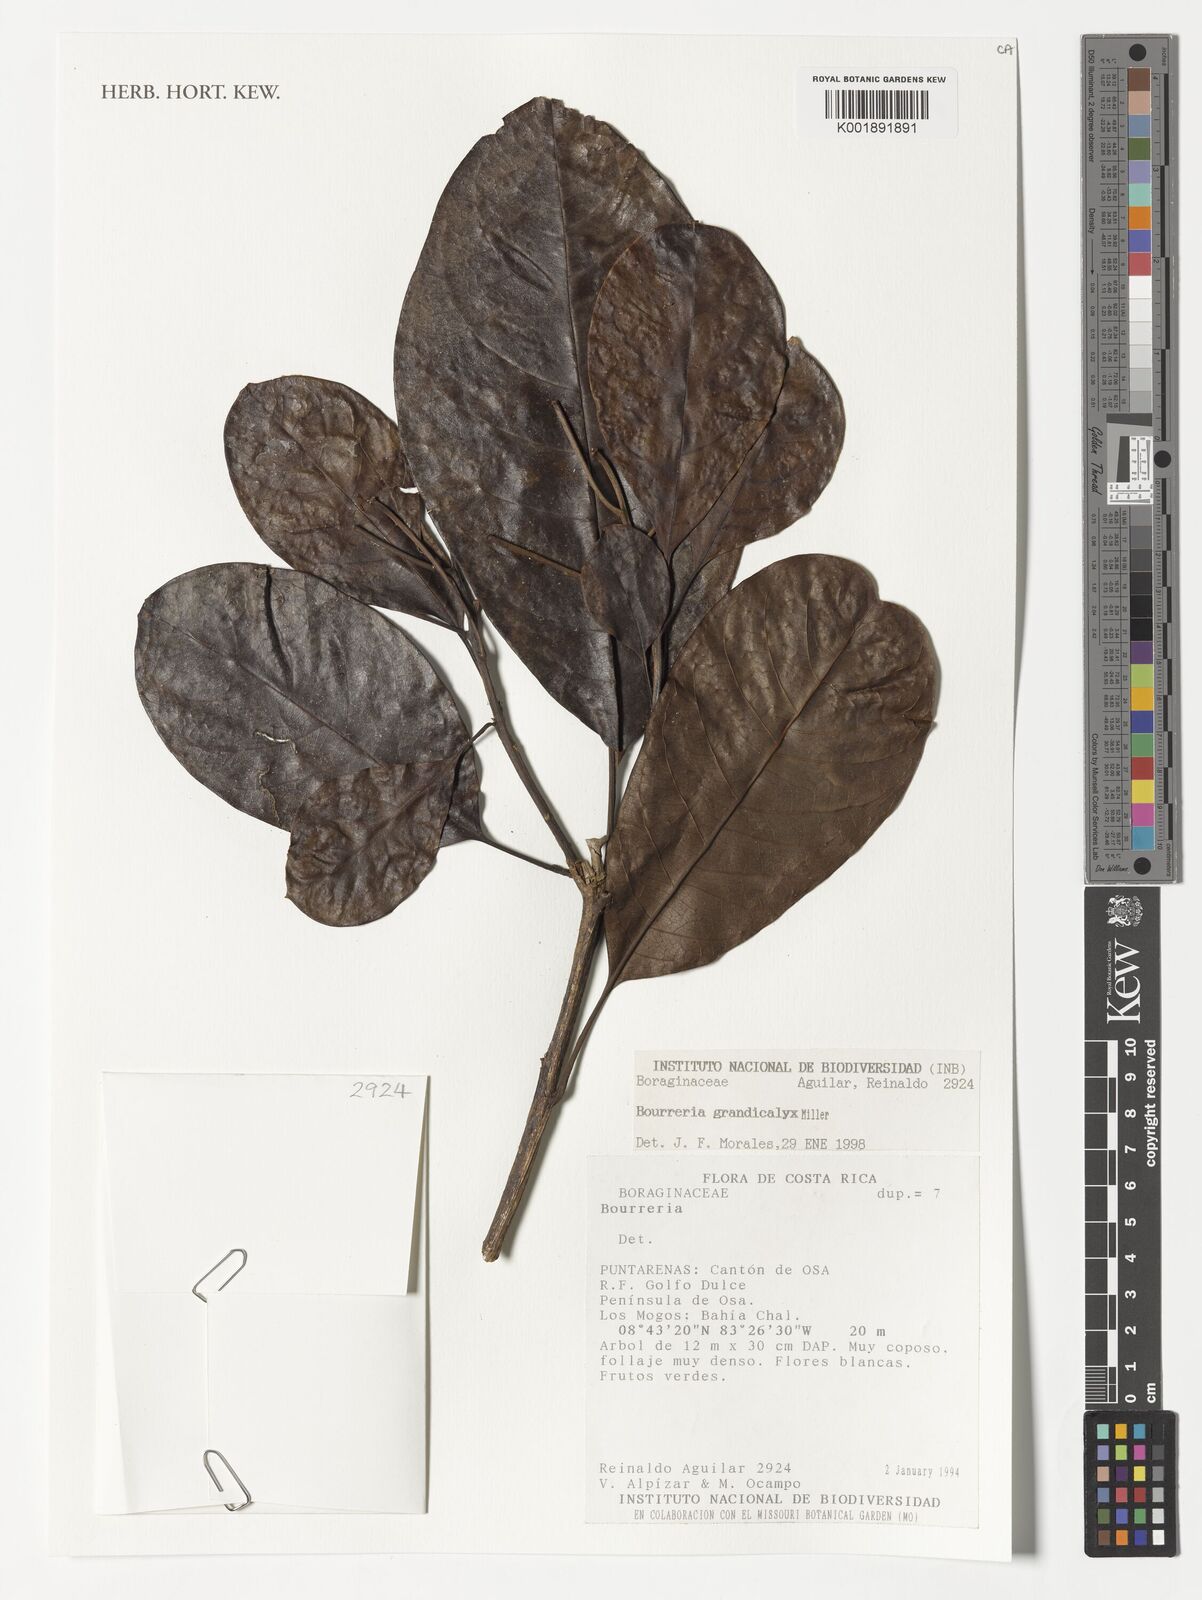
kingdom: Plantae
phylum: Tracheophyta
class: Magnoliopsida
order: Boraginales
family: Ehretiaceae
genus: Bourreria
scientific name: Bourreria grandicalyx
